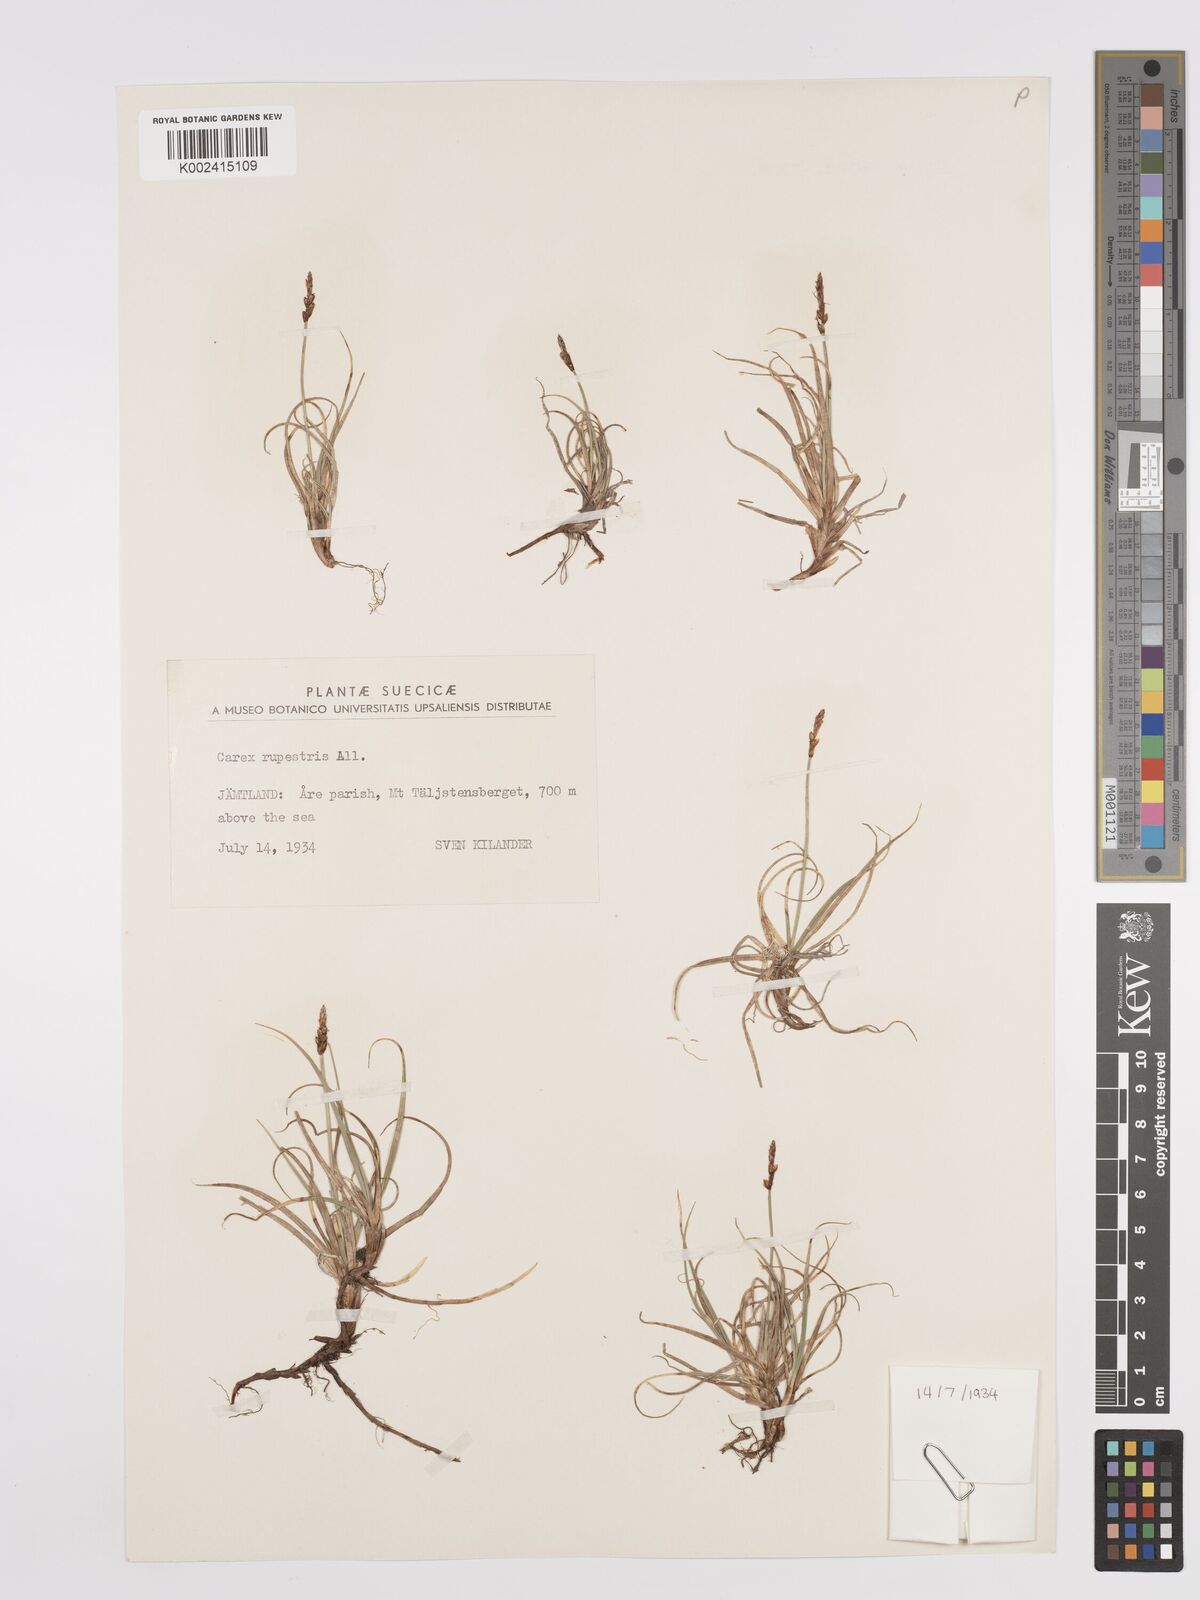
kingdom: Plantae
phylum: Tracheophyta
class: Liliopsida
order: Poales
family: Cyperaceae
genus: Carex
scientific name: Carex rupestris
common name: Rock sedge
